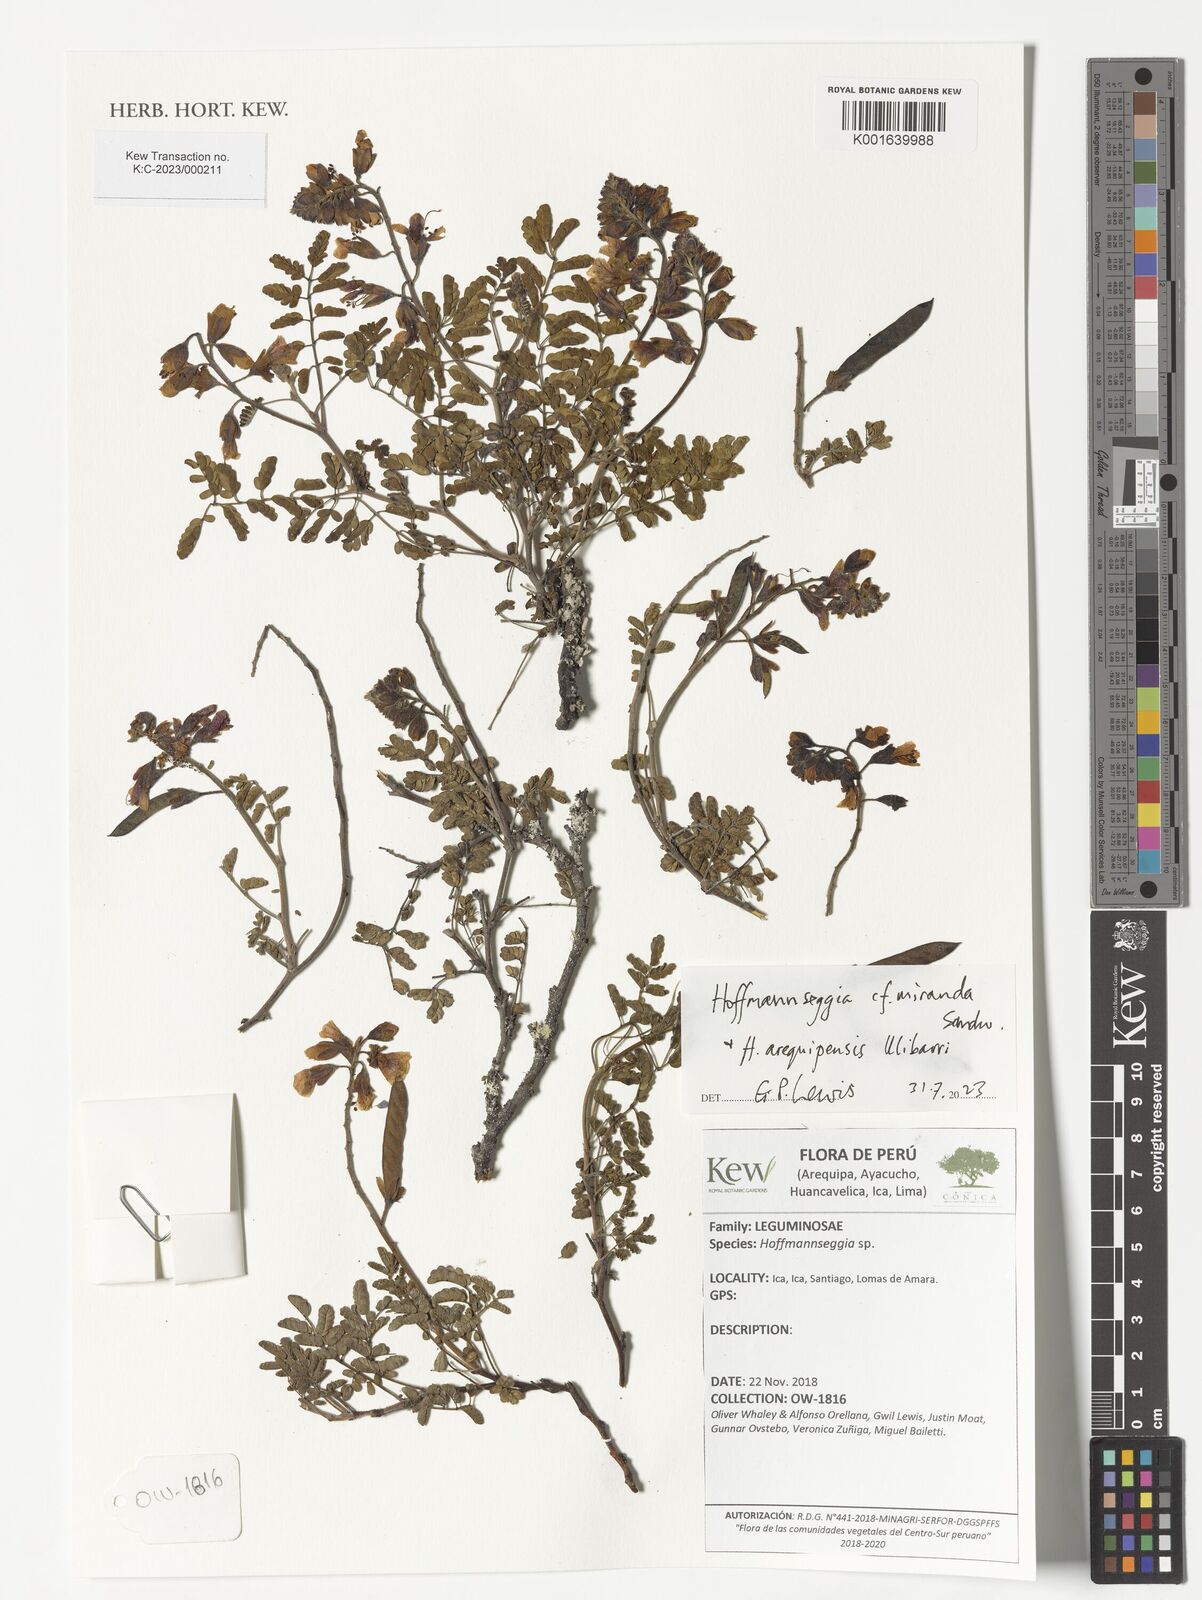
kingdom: Plantae
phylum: Tracheophyta
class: Magnoliopsida
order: Fabales
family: Fabaceae
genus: Hoffmannseggia
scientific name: Hoffmannseggia miranda
